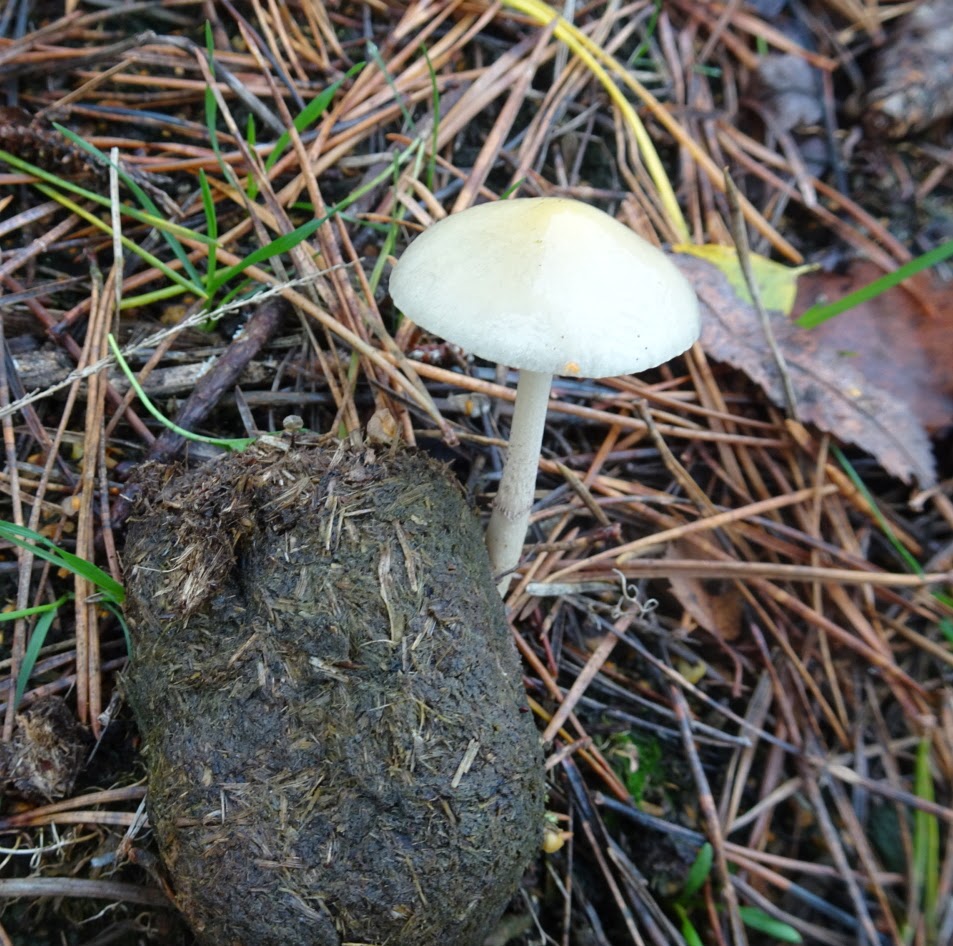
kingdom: Fungi
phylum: Basidiomycota
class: Agaricomycetes
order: Agaricales
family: Strophariaceae
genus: Protostropharia
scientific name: Protostropharia semiglobata
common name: halvkugleformet bredblad
